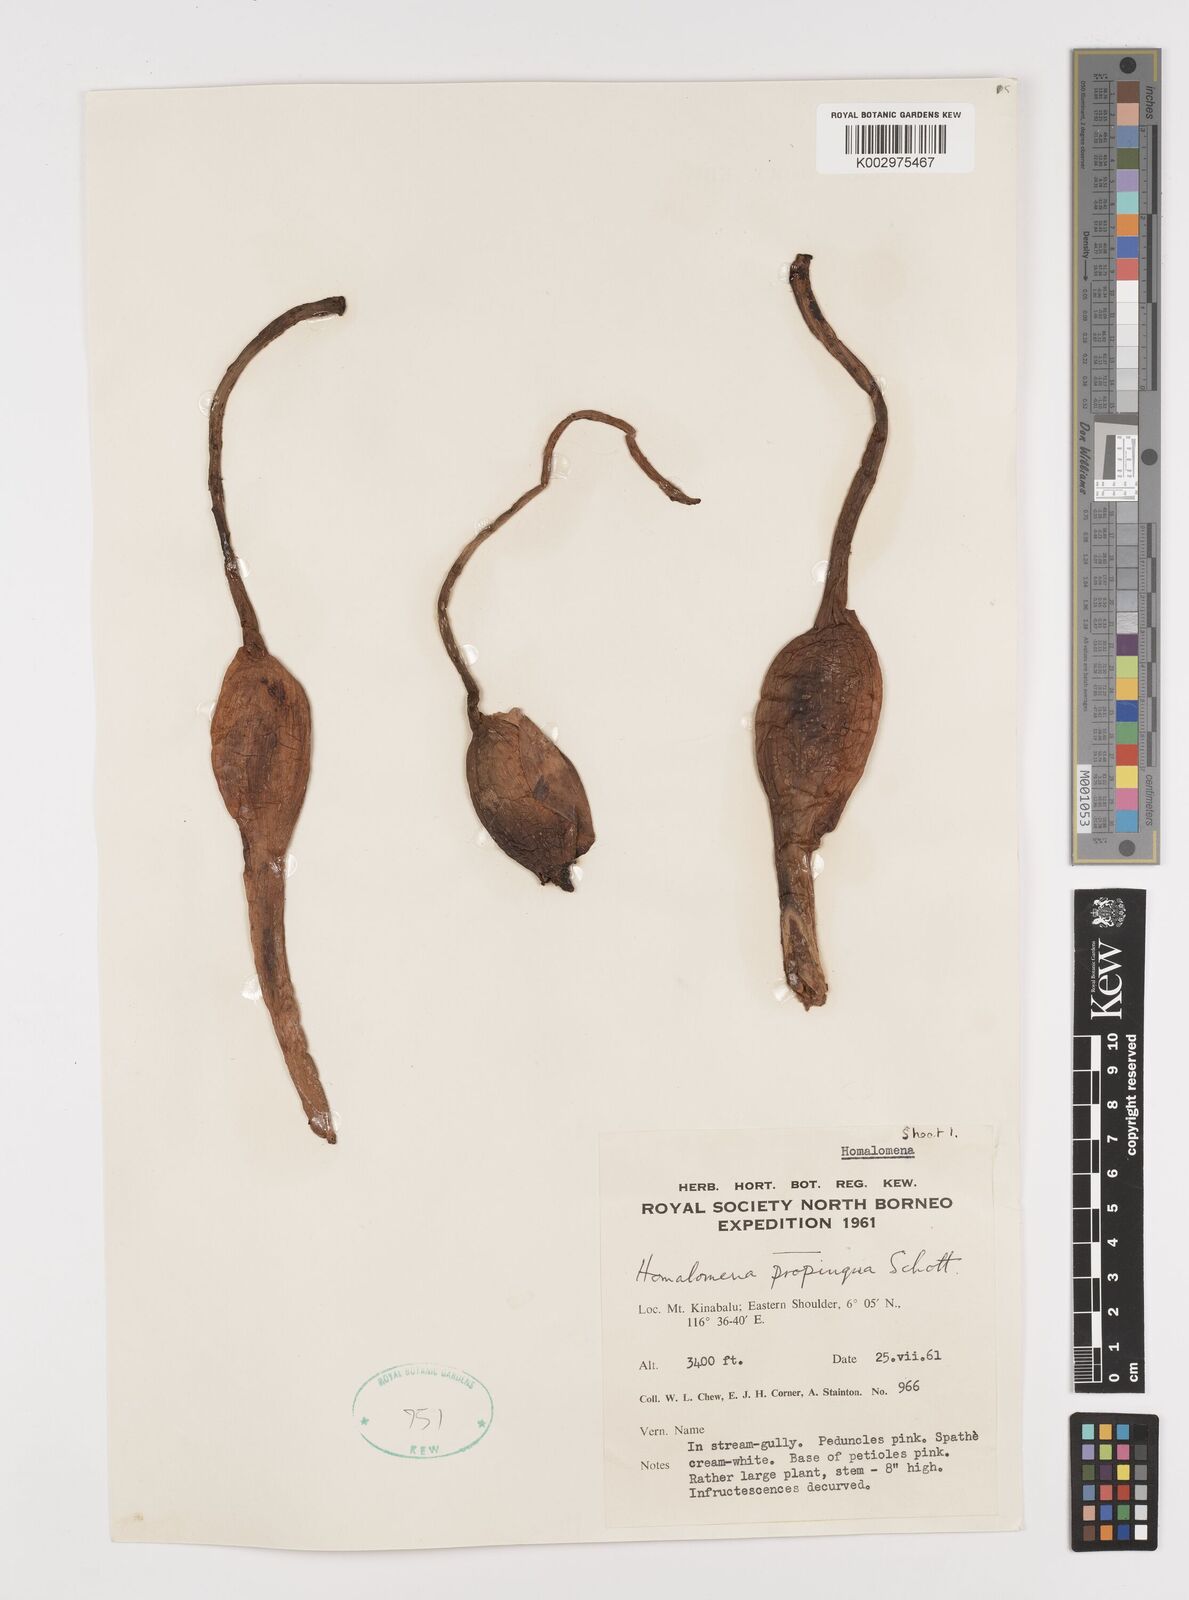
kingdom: Plantae
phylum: Tracheophyta
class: Liliopsida
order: Alismatales
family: Araceae
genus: Homalomena
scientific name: Homalomena humilis
